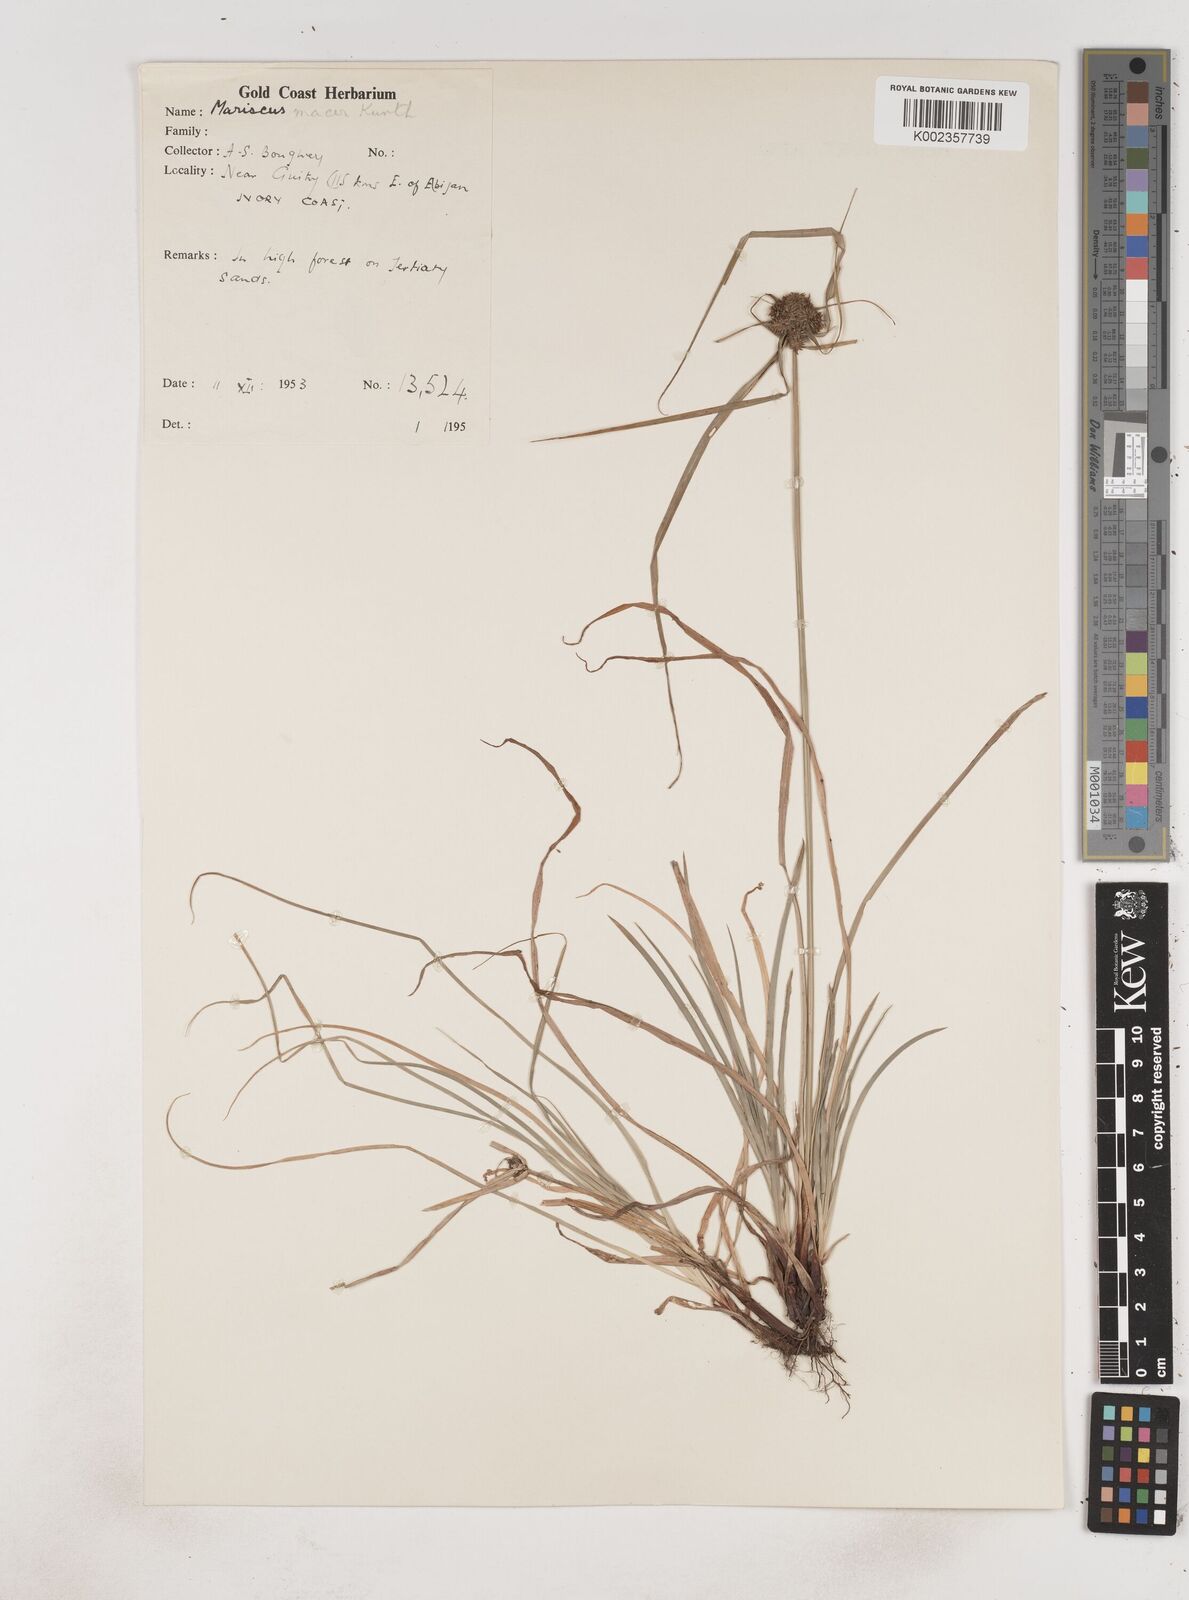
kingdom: Plantae
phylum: Tracheophyta
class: Liliopsida
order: Poales
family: Cyperaceae
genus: Cyperus
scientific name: Cyperus sublimis
